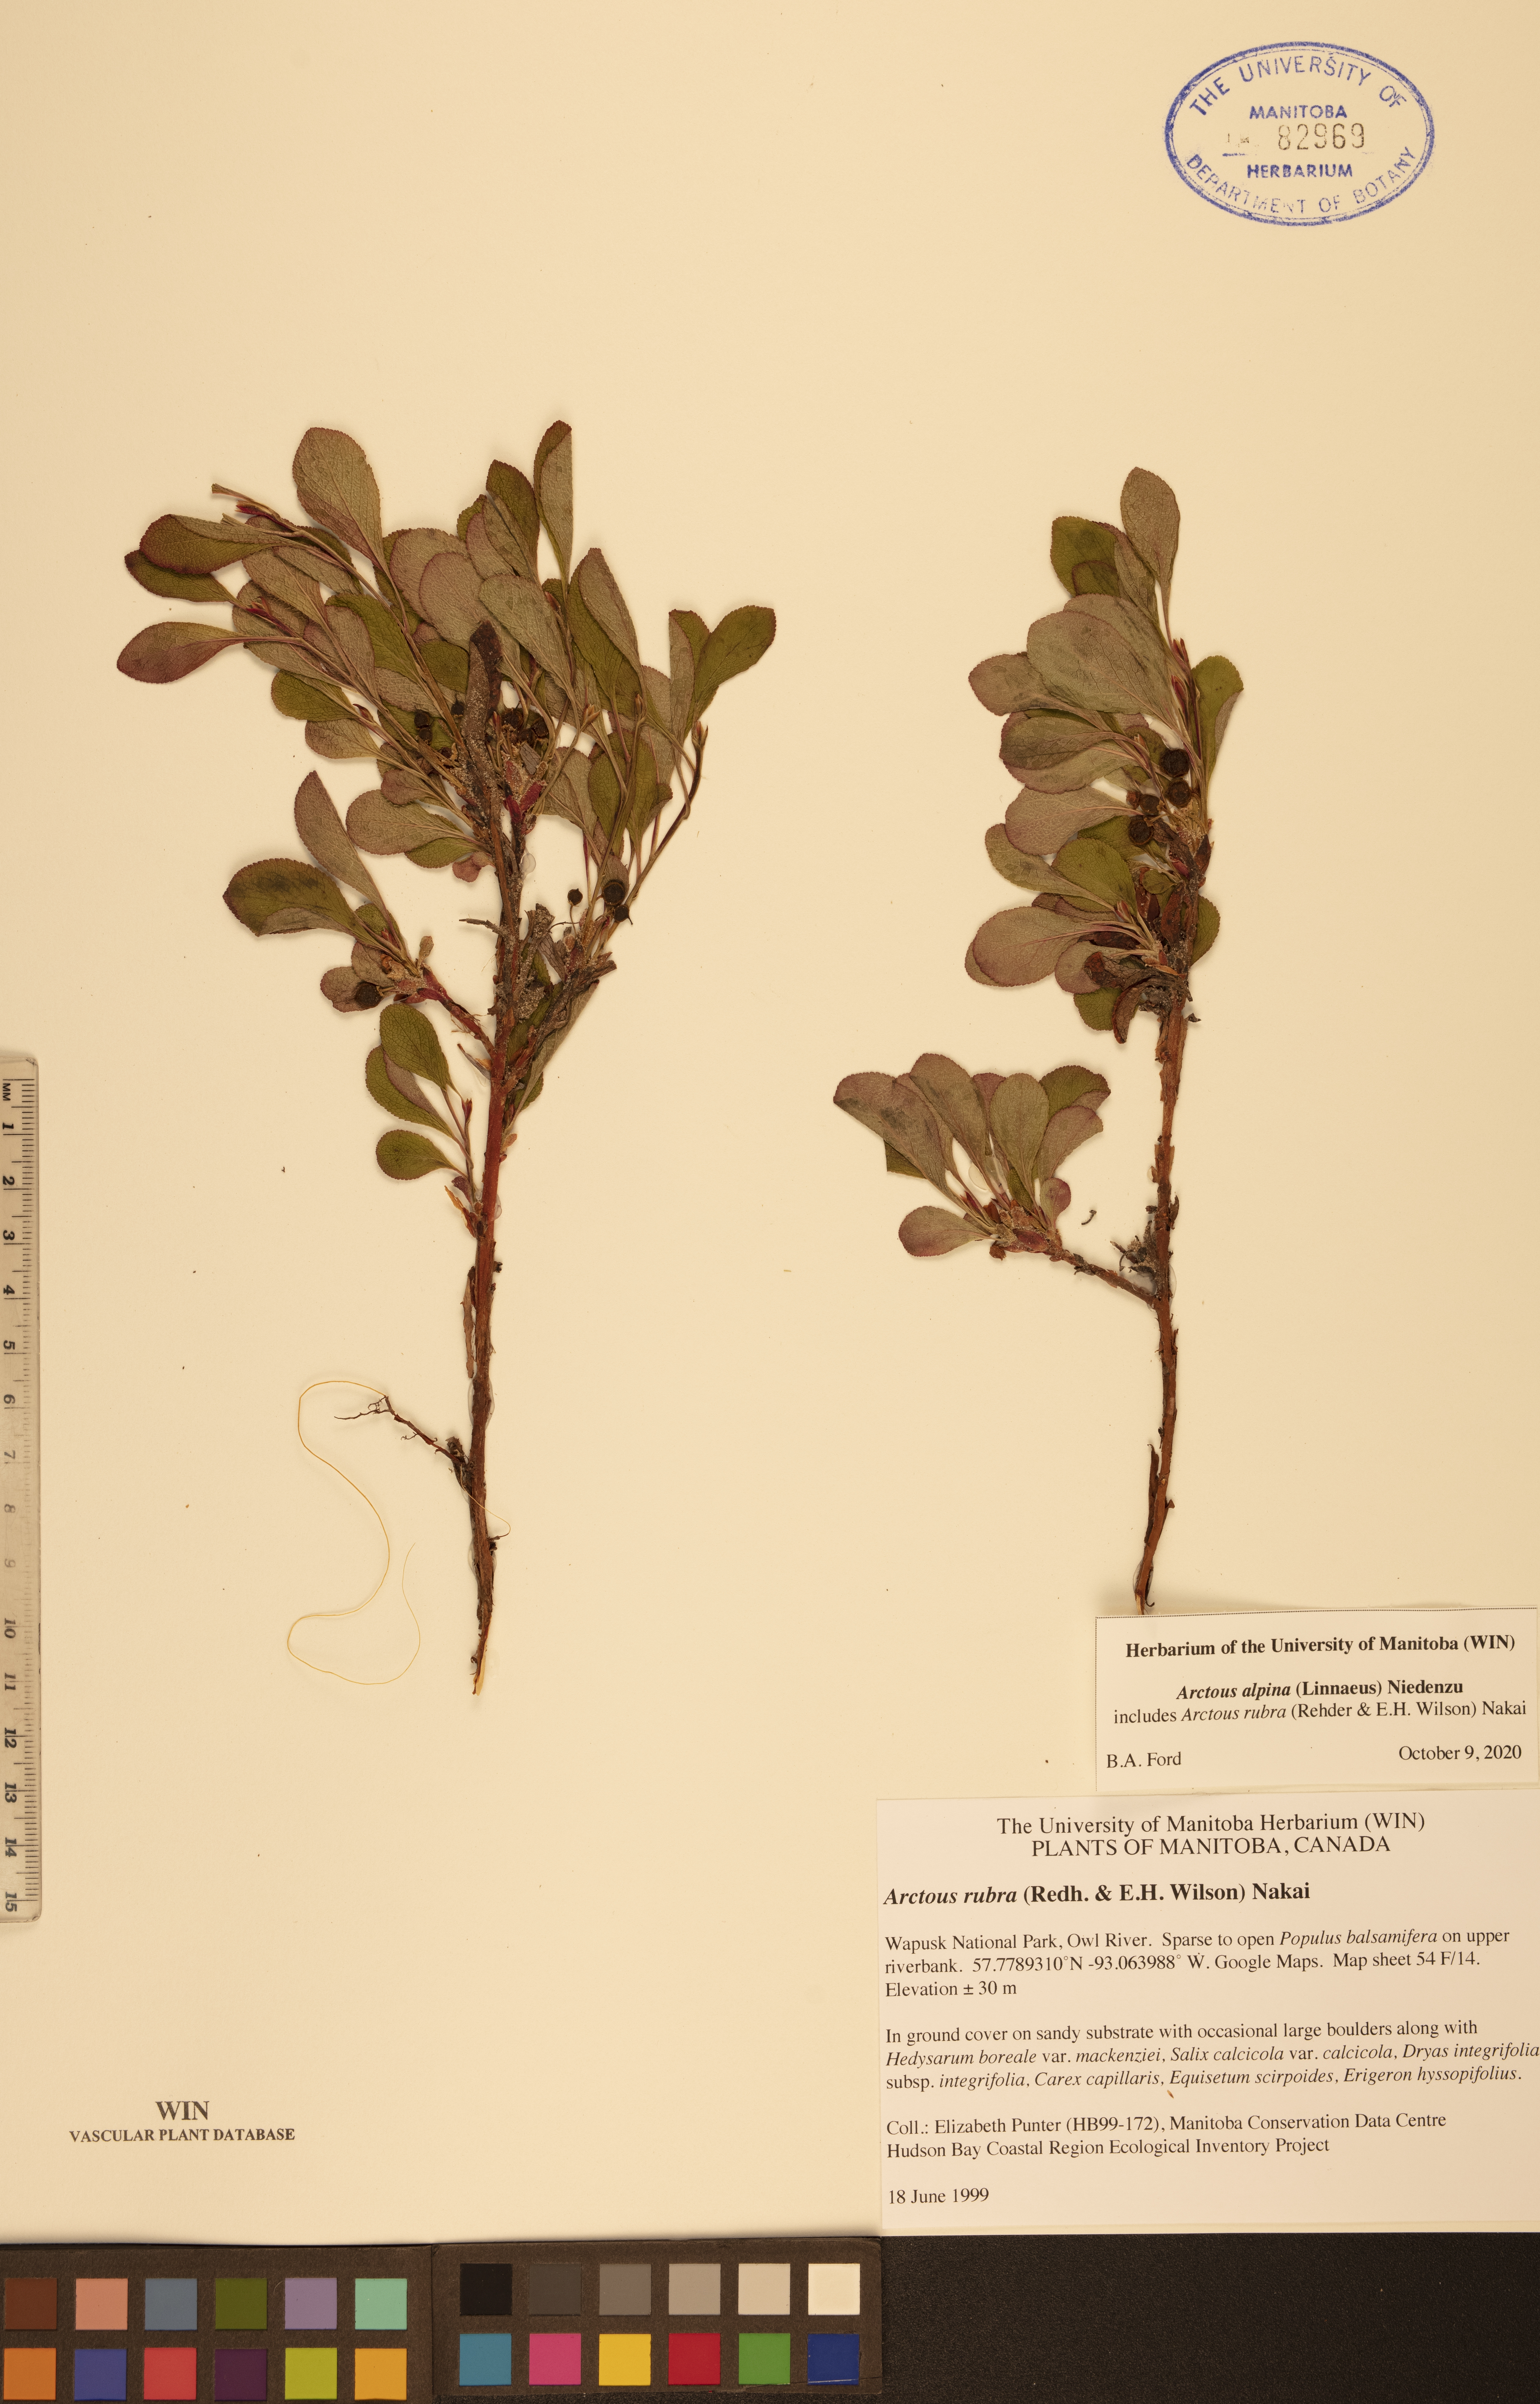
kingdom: Plantae
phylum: Tracheophyta
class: Magnoliopsida
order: Ericales
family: Ericaceae
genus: Arctostaphylos
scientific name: Arctostaphylos alpinus
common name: Alpine bearberry
